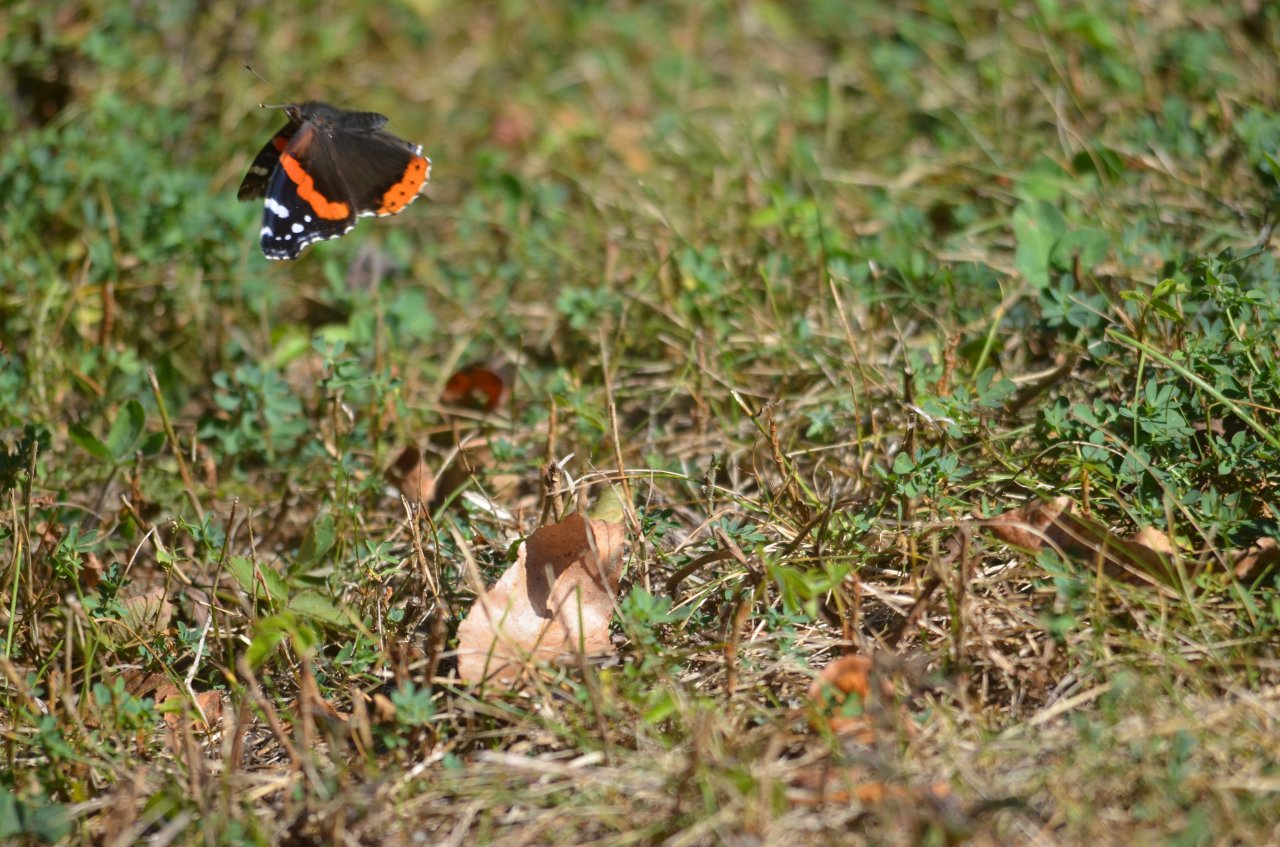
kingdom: Animalia
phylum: Arthropoda
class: Insecta
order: Lepidoptera
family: Nymphalidae
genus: Vanessa
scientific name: Vanessa atalanta
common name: Red Admiral
